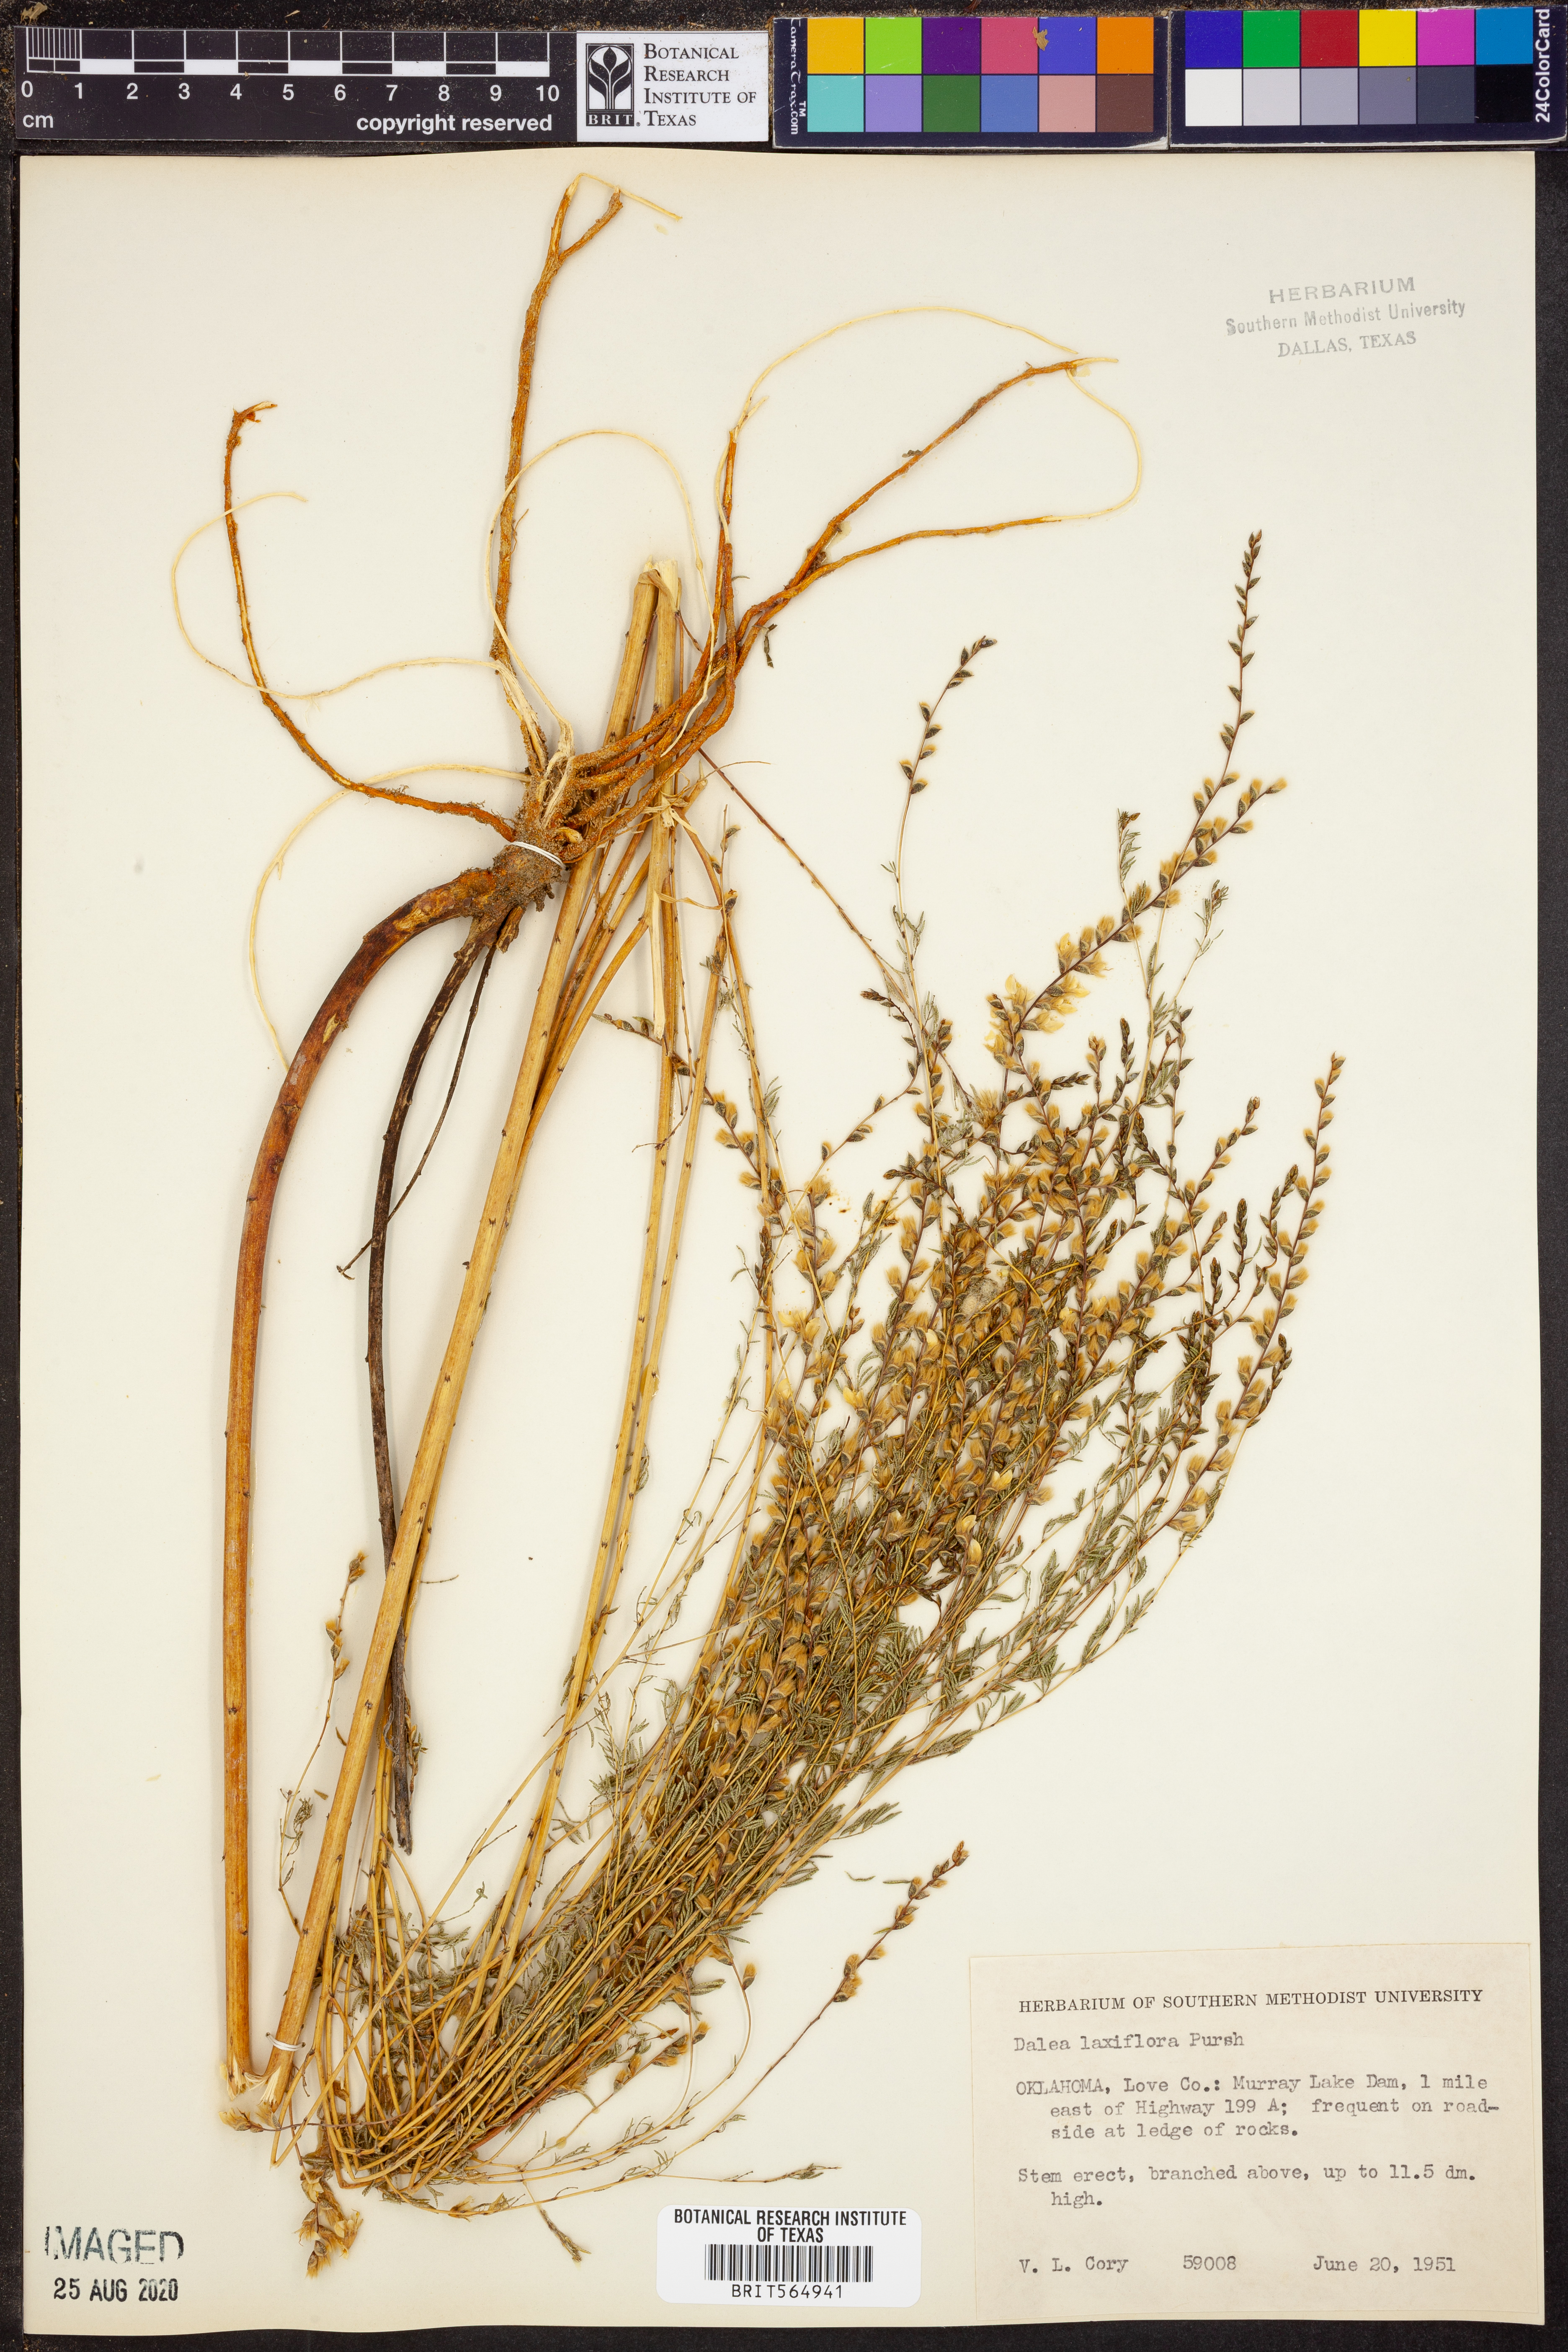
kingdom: Plantae
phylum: Tracheophyta
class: Magnoliopsida
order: Fabales
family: Fabaceae
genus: Dalea
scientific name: Dalea hegewischiana
